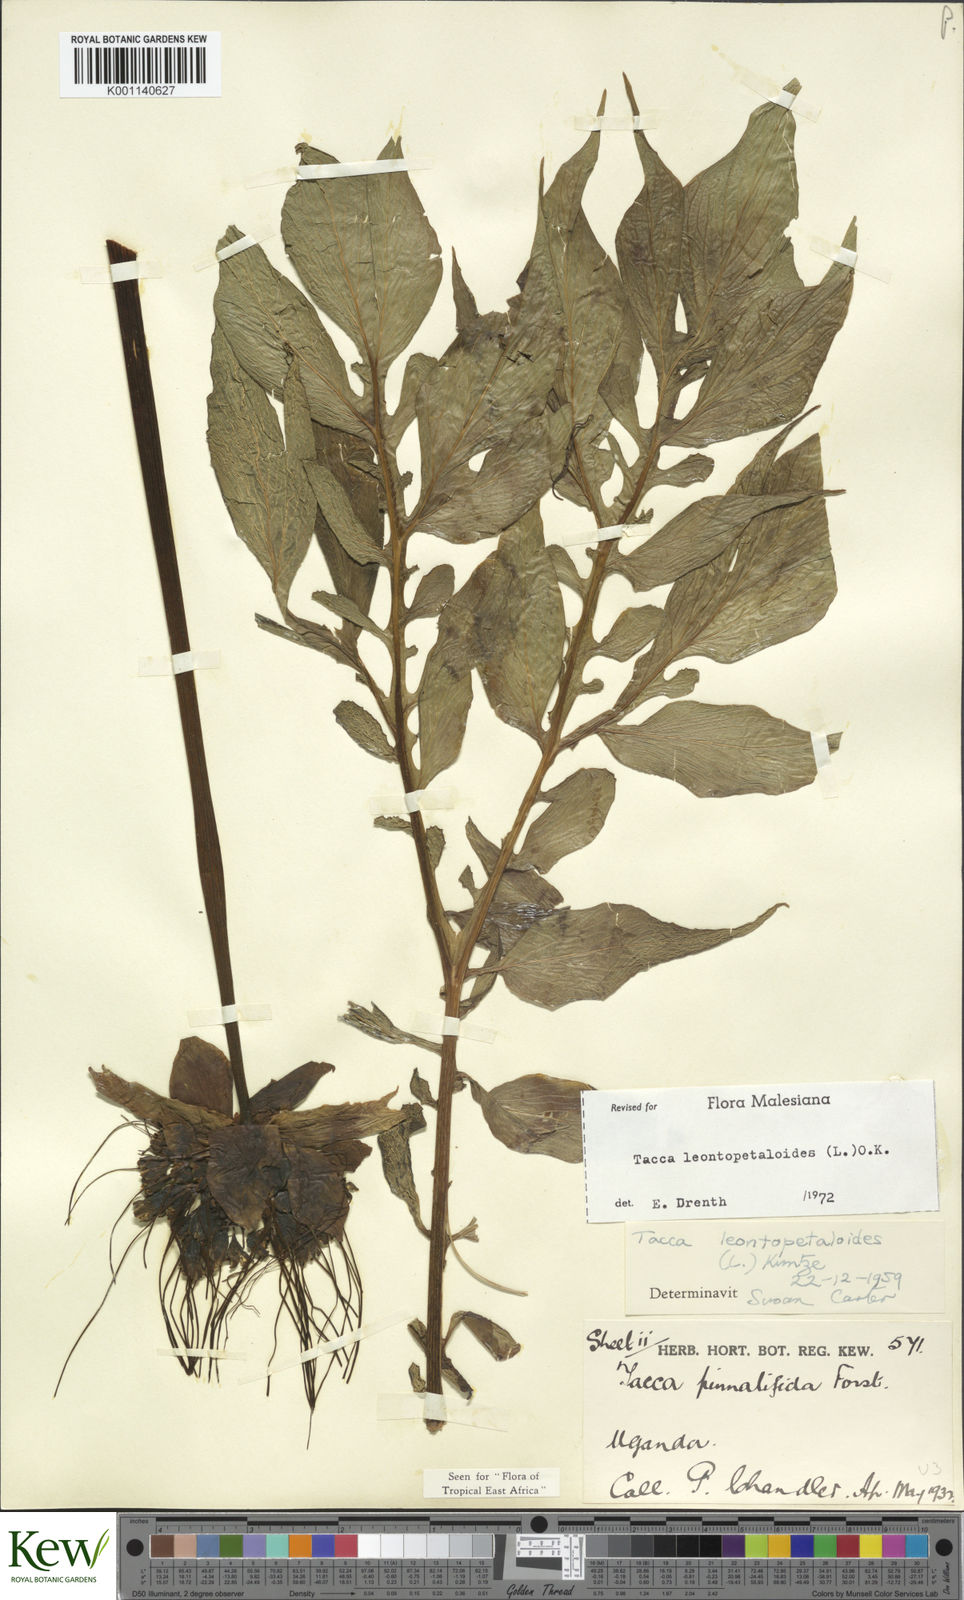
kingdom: Plantae
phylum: Tracheophyta
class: Liliopsida
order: Dioscoreales
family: Dioscoreaceae
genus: Tacca
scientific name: Tacca leontopetaloides
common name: Arrowroot
